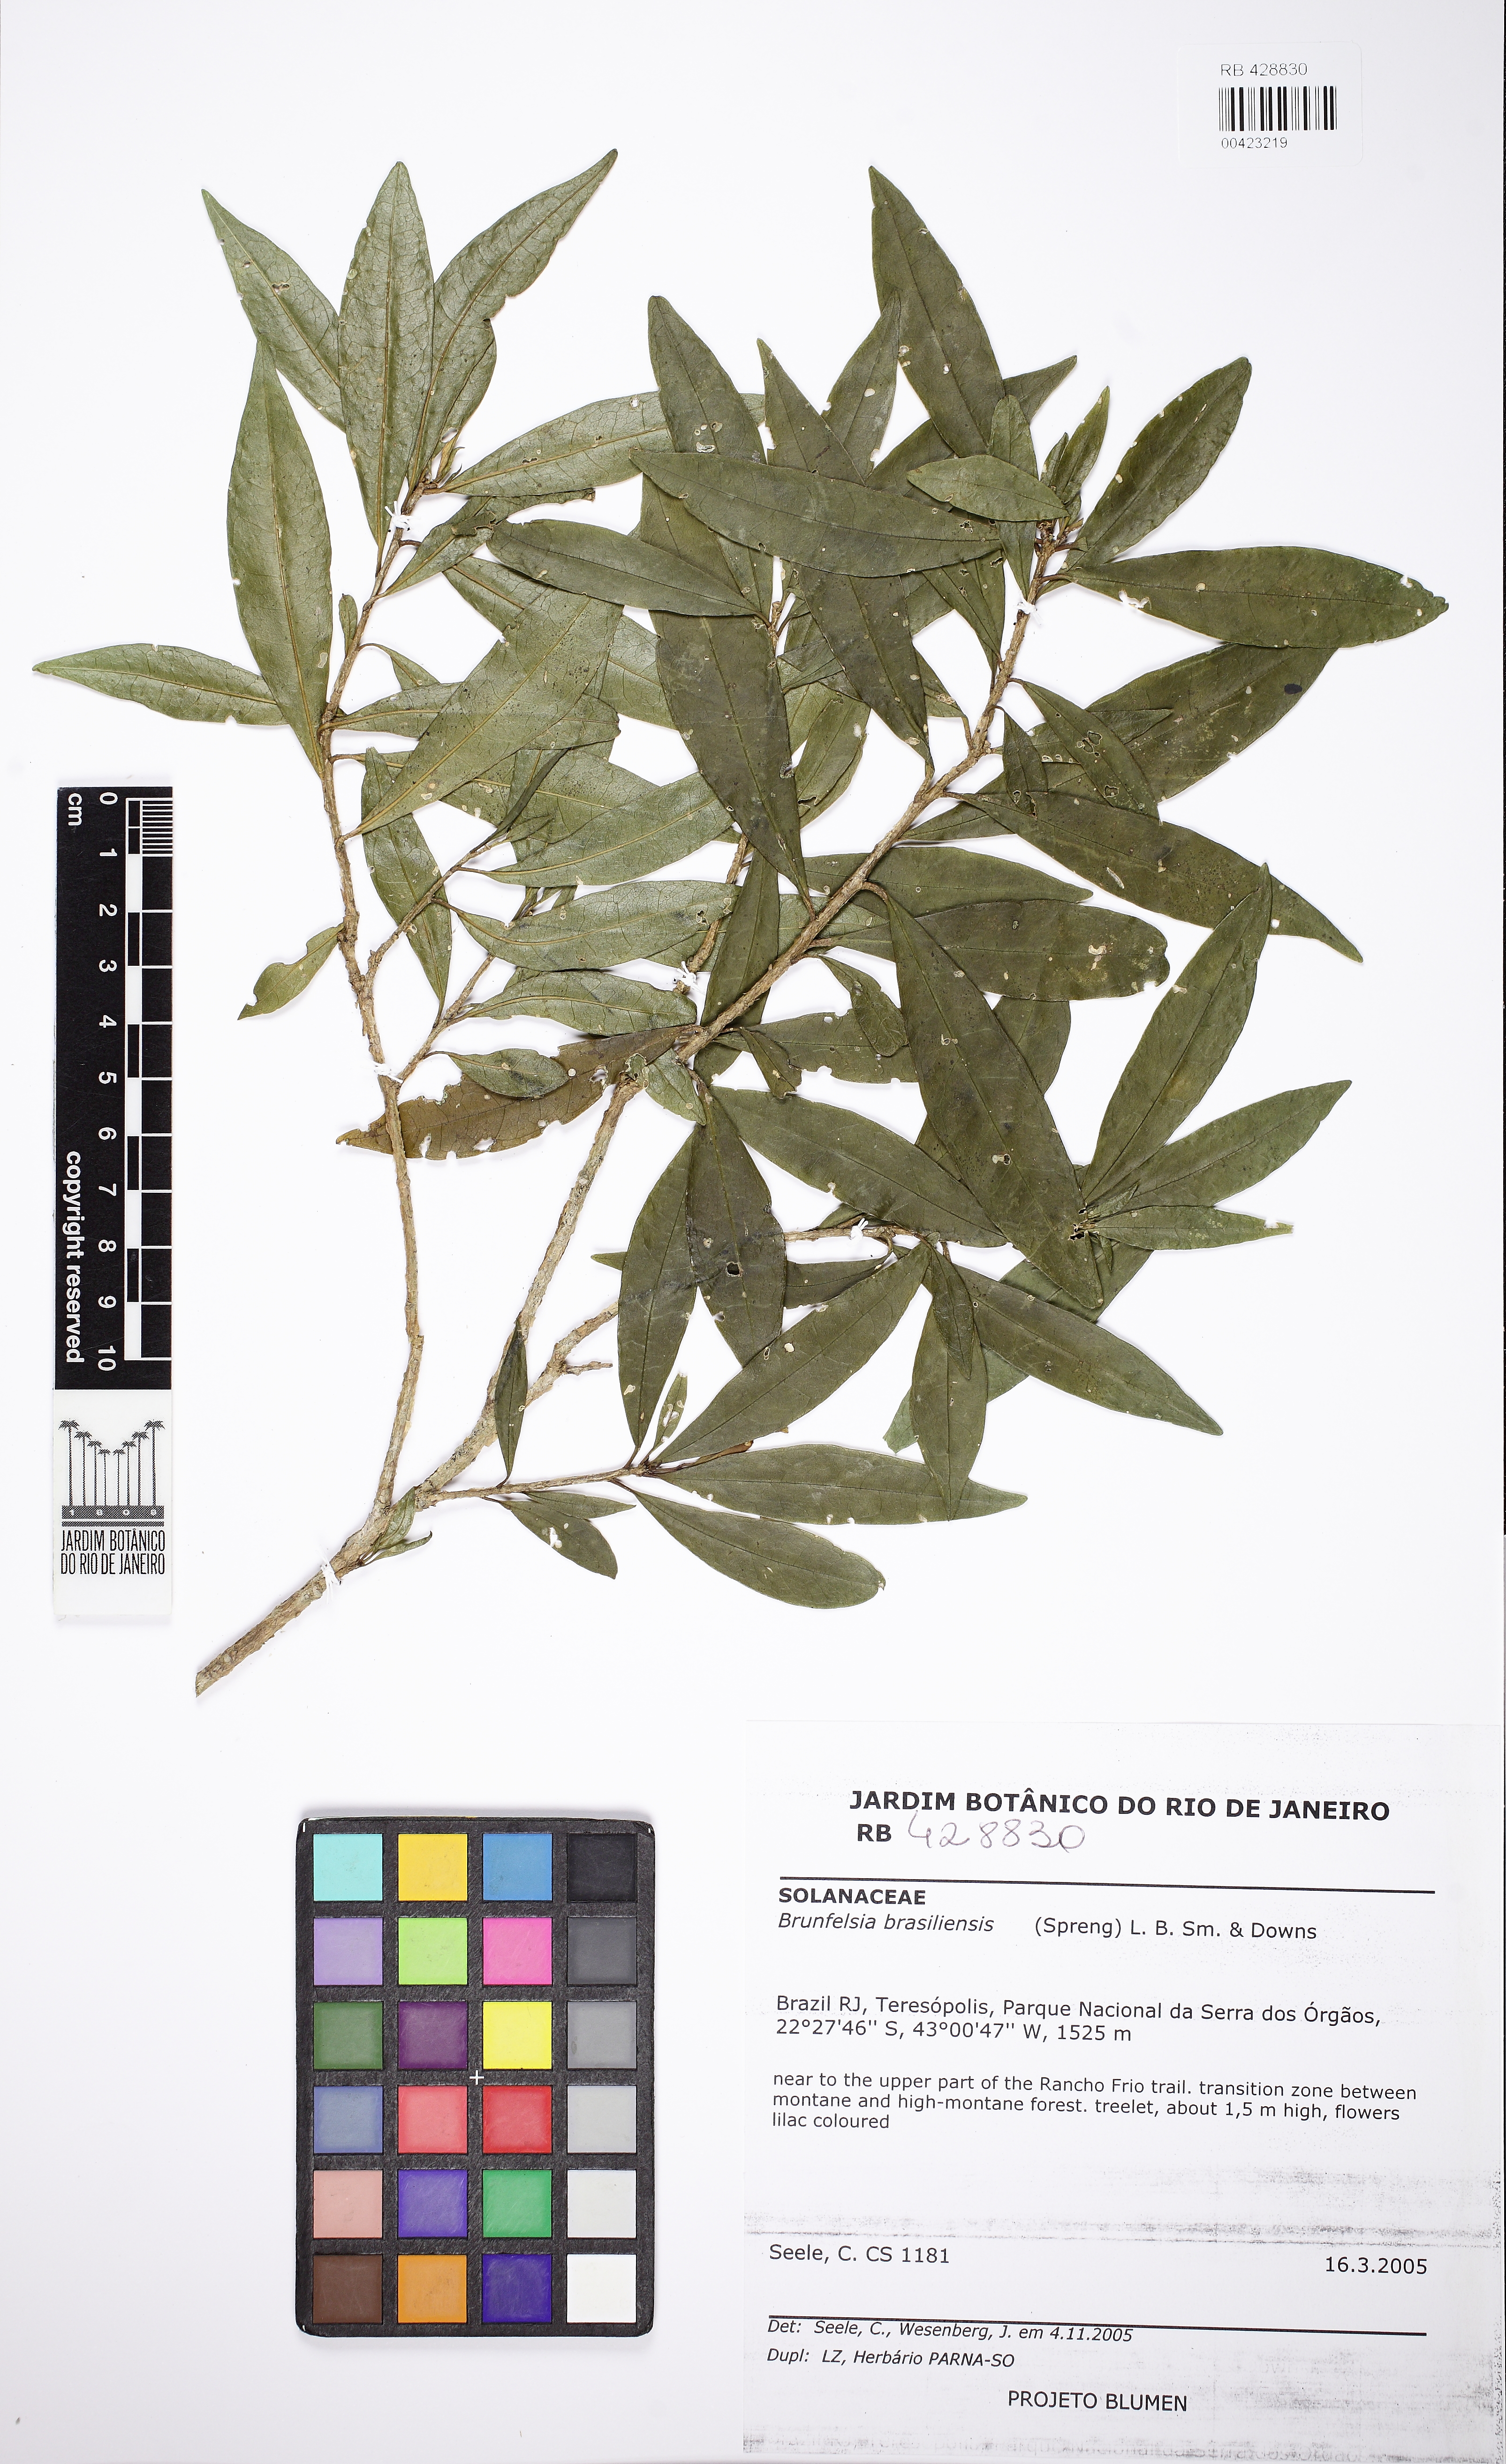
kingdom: Plantae
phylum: Tracheophyta
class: Magnoliopsida
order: Solanales
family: Solanaceae
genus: Brunfelsia
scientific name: Brunfelsia brasiliensis
